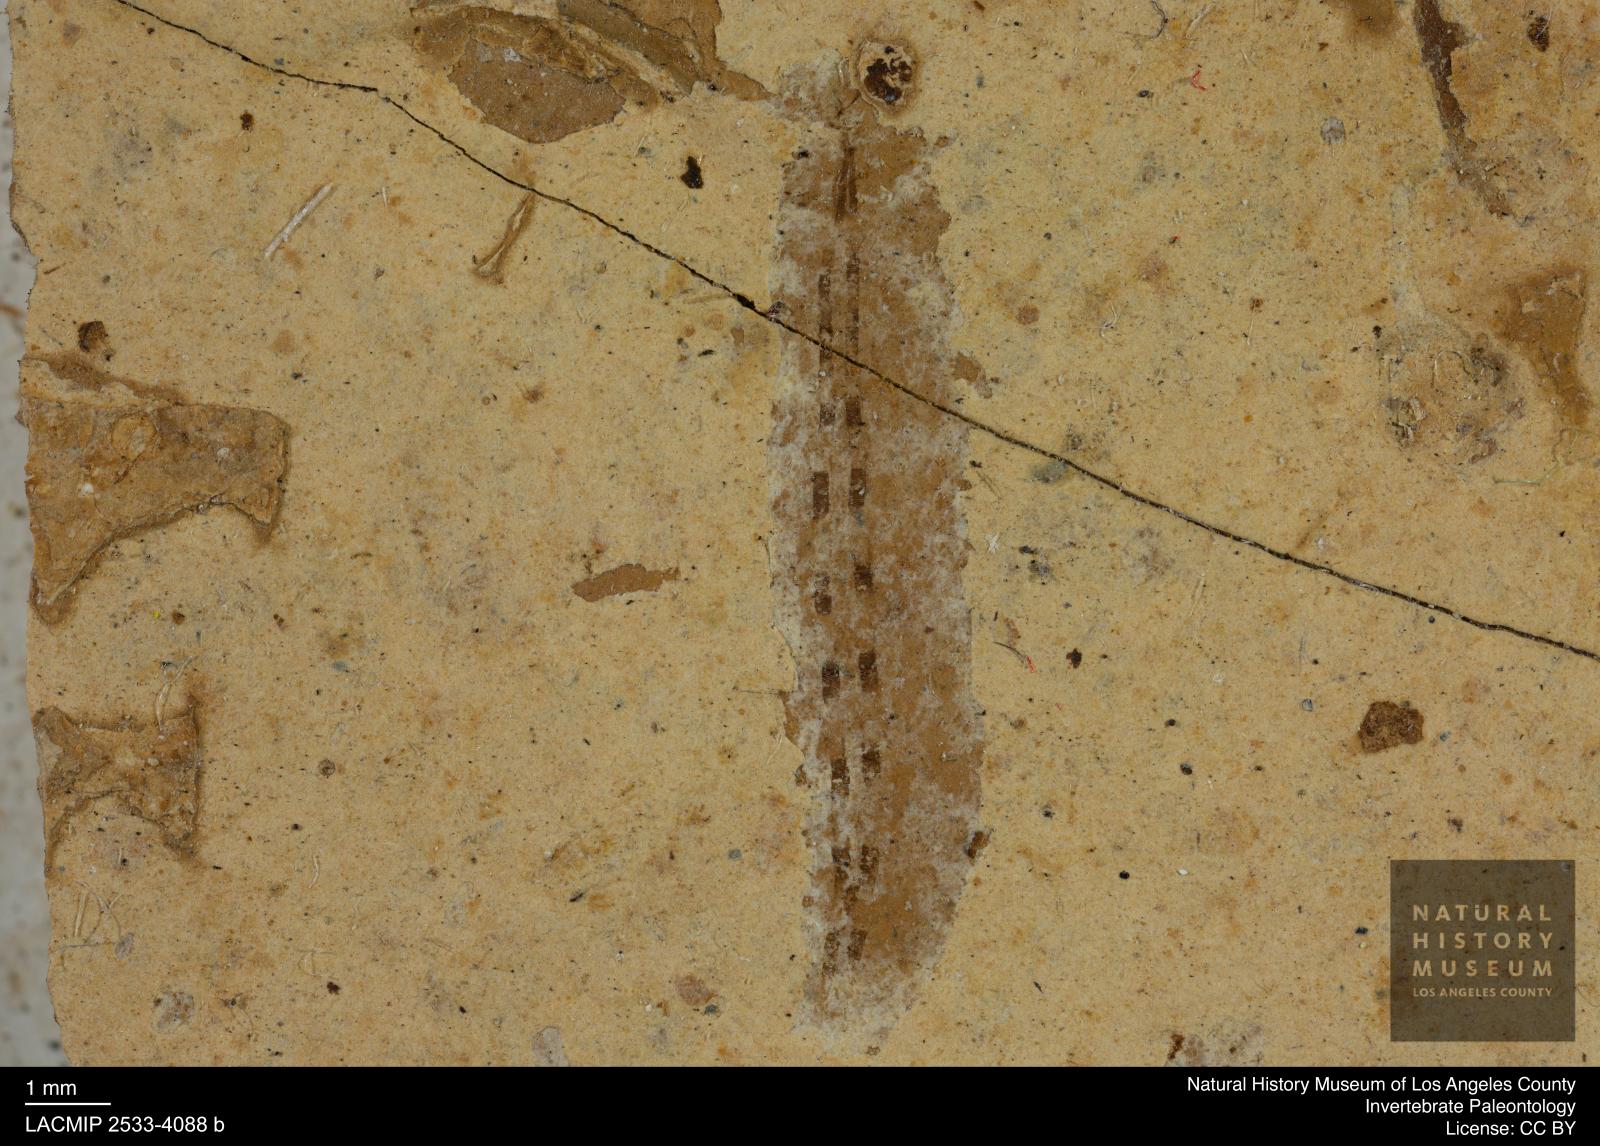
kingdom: Animalia
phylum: Arthropoda
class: Insecta
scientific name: Insecta
